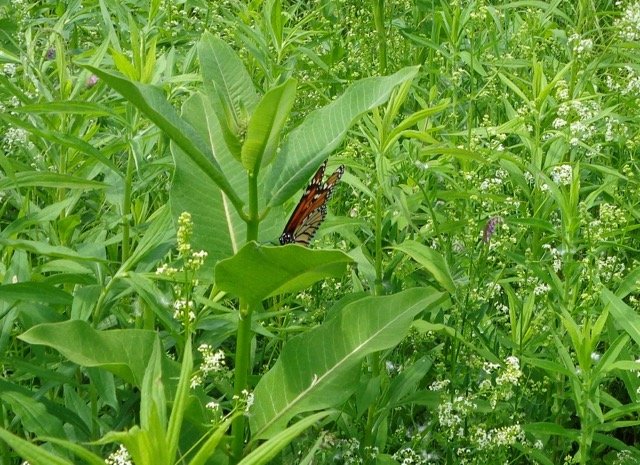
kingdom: Animalia
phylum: Arthropoda
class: Insecta
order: Lepidoptera
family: Nymphalidae
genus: Danaus
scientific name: Danaus plexippus
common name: Monarch
